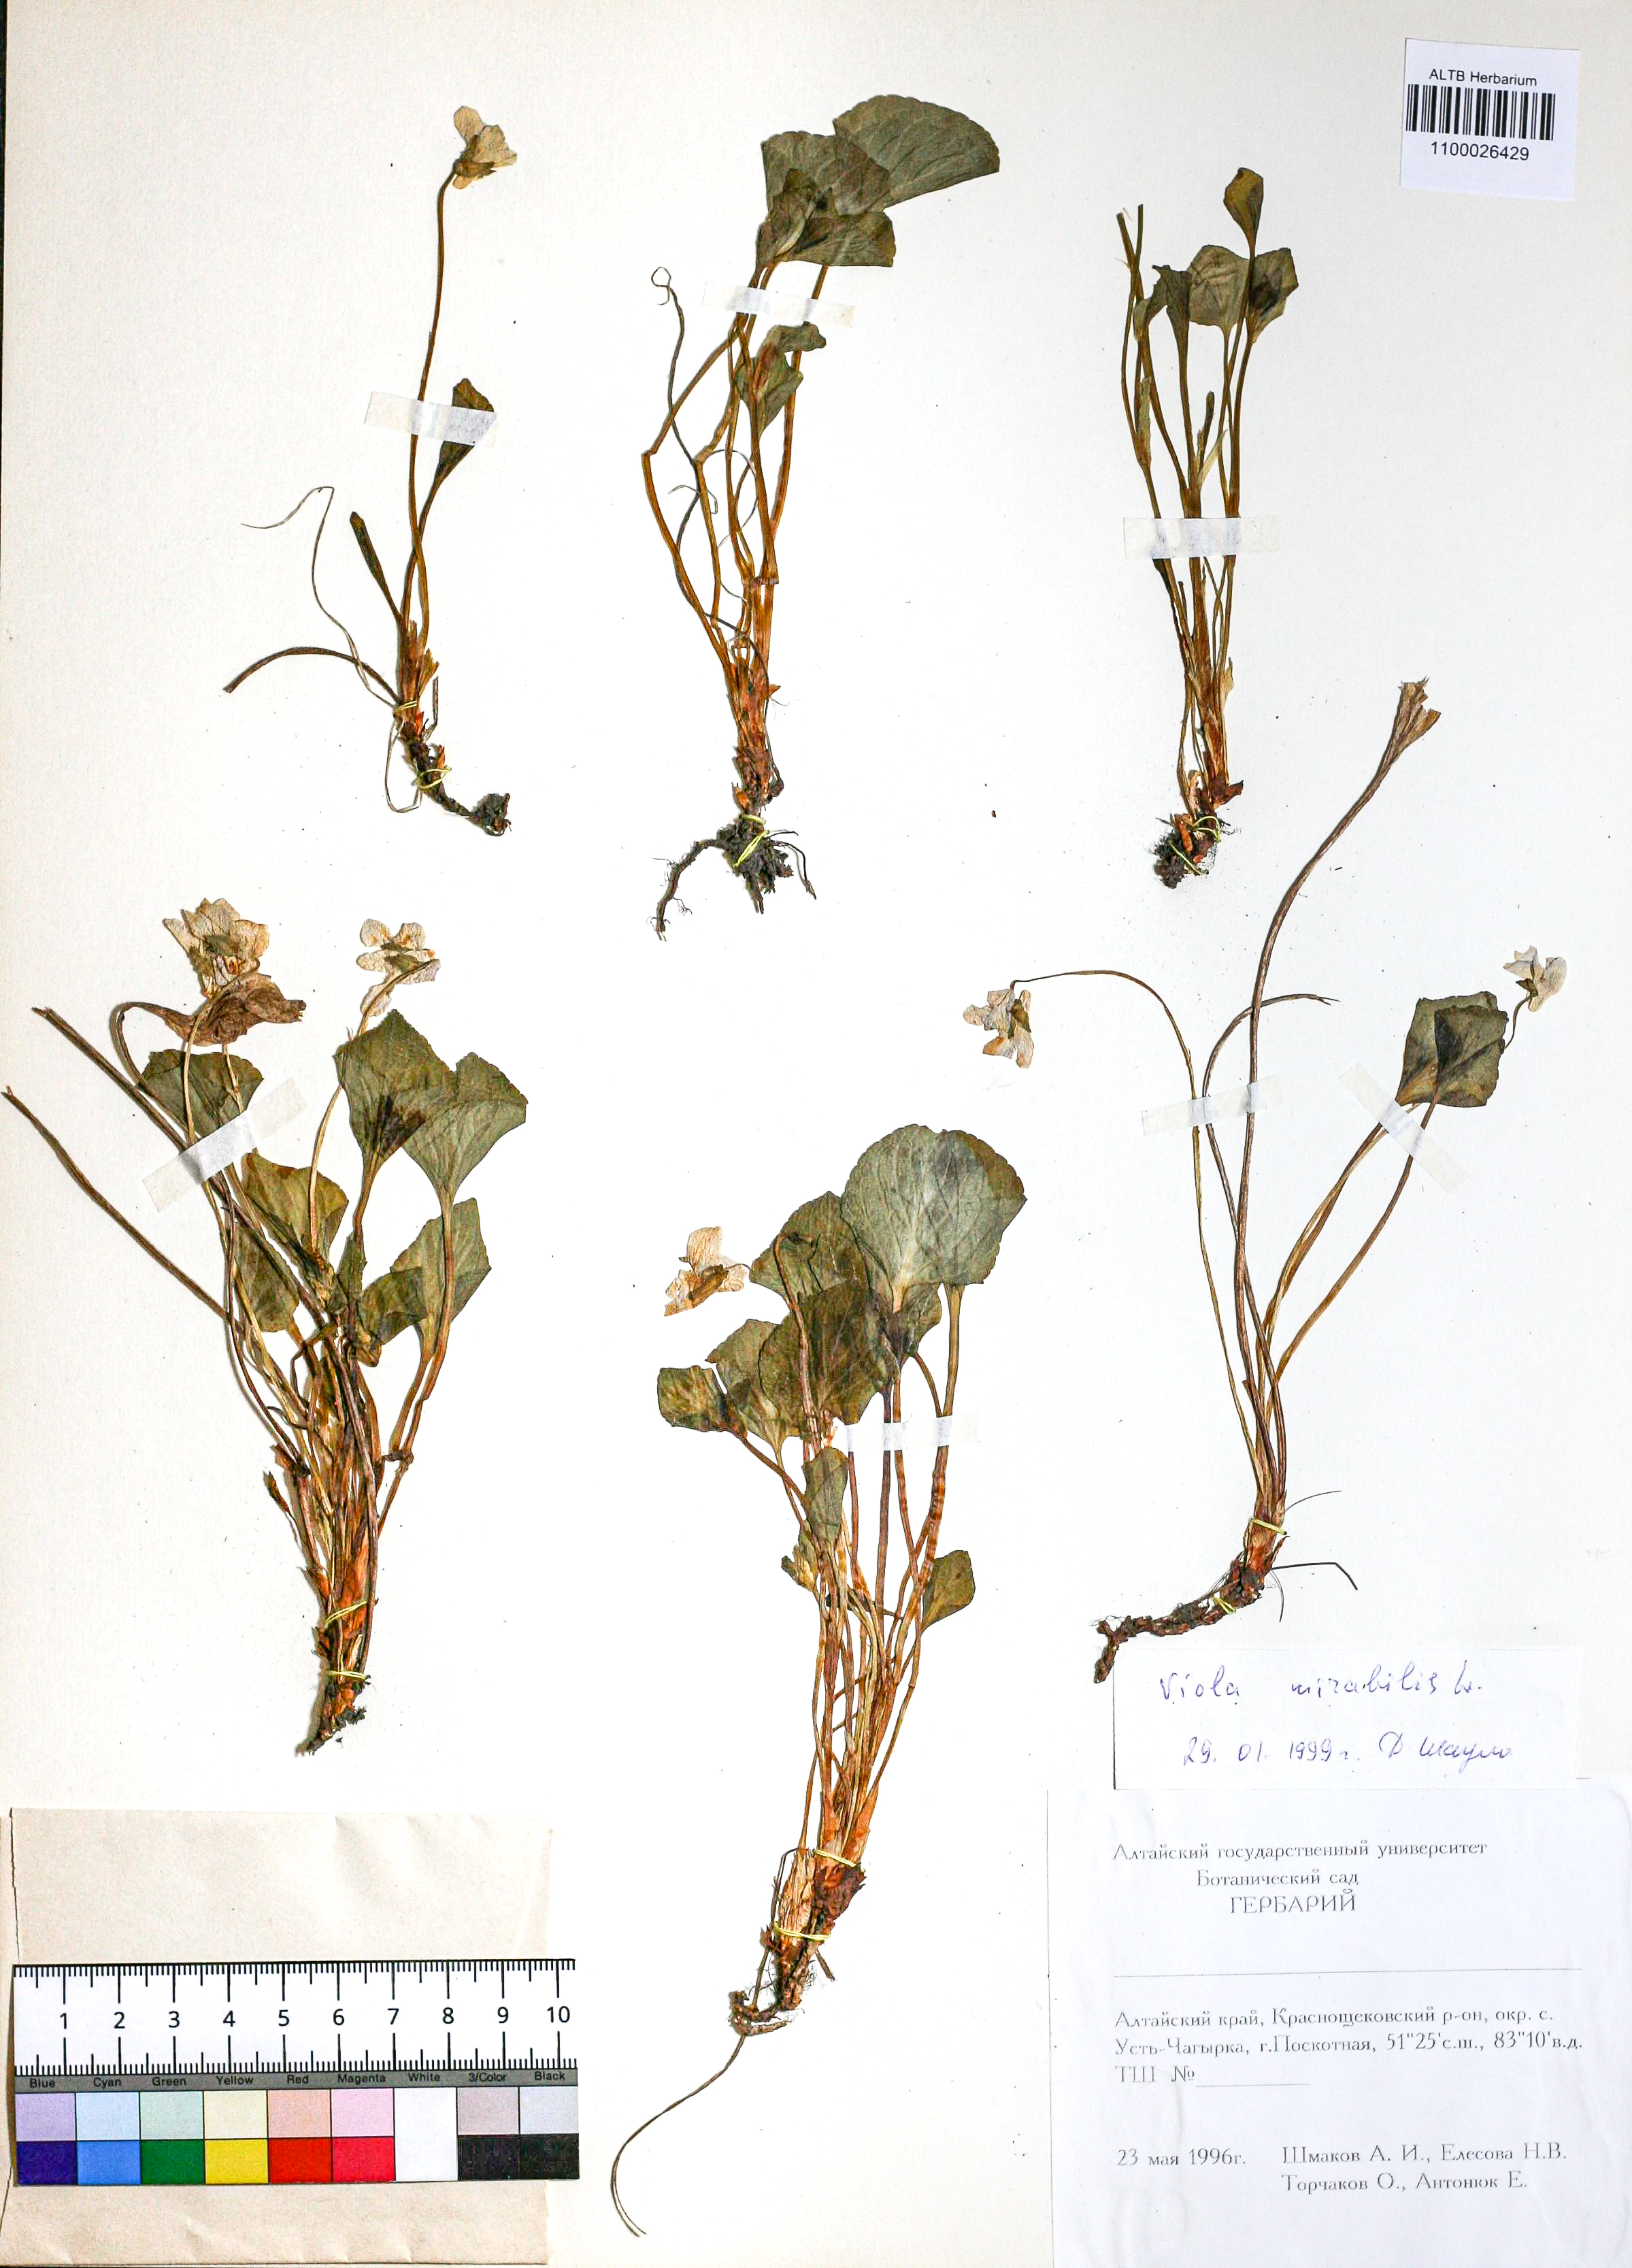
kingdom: Plantae
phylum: Tracheophyta
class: Magnoliopsida
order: Malpighiales
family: Violaceae
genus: Viola
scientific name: Viola mirabilis
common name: Wonder violet
